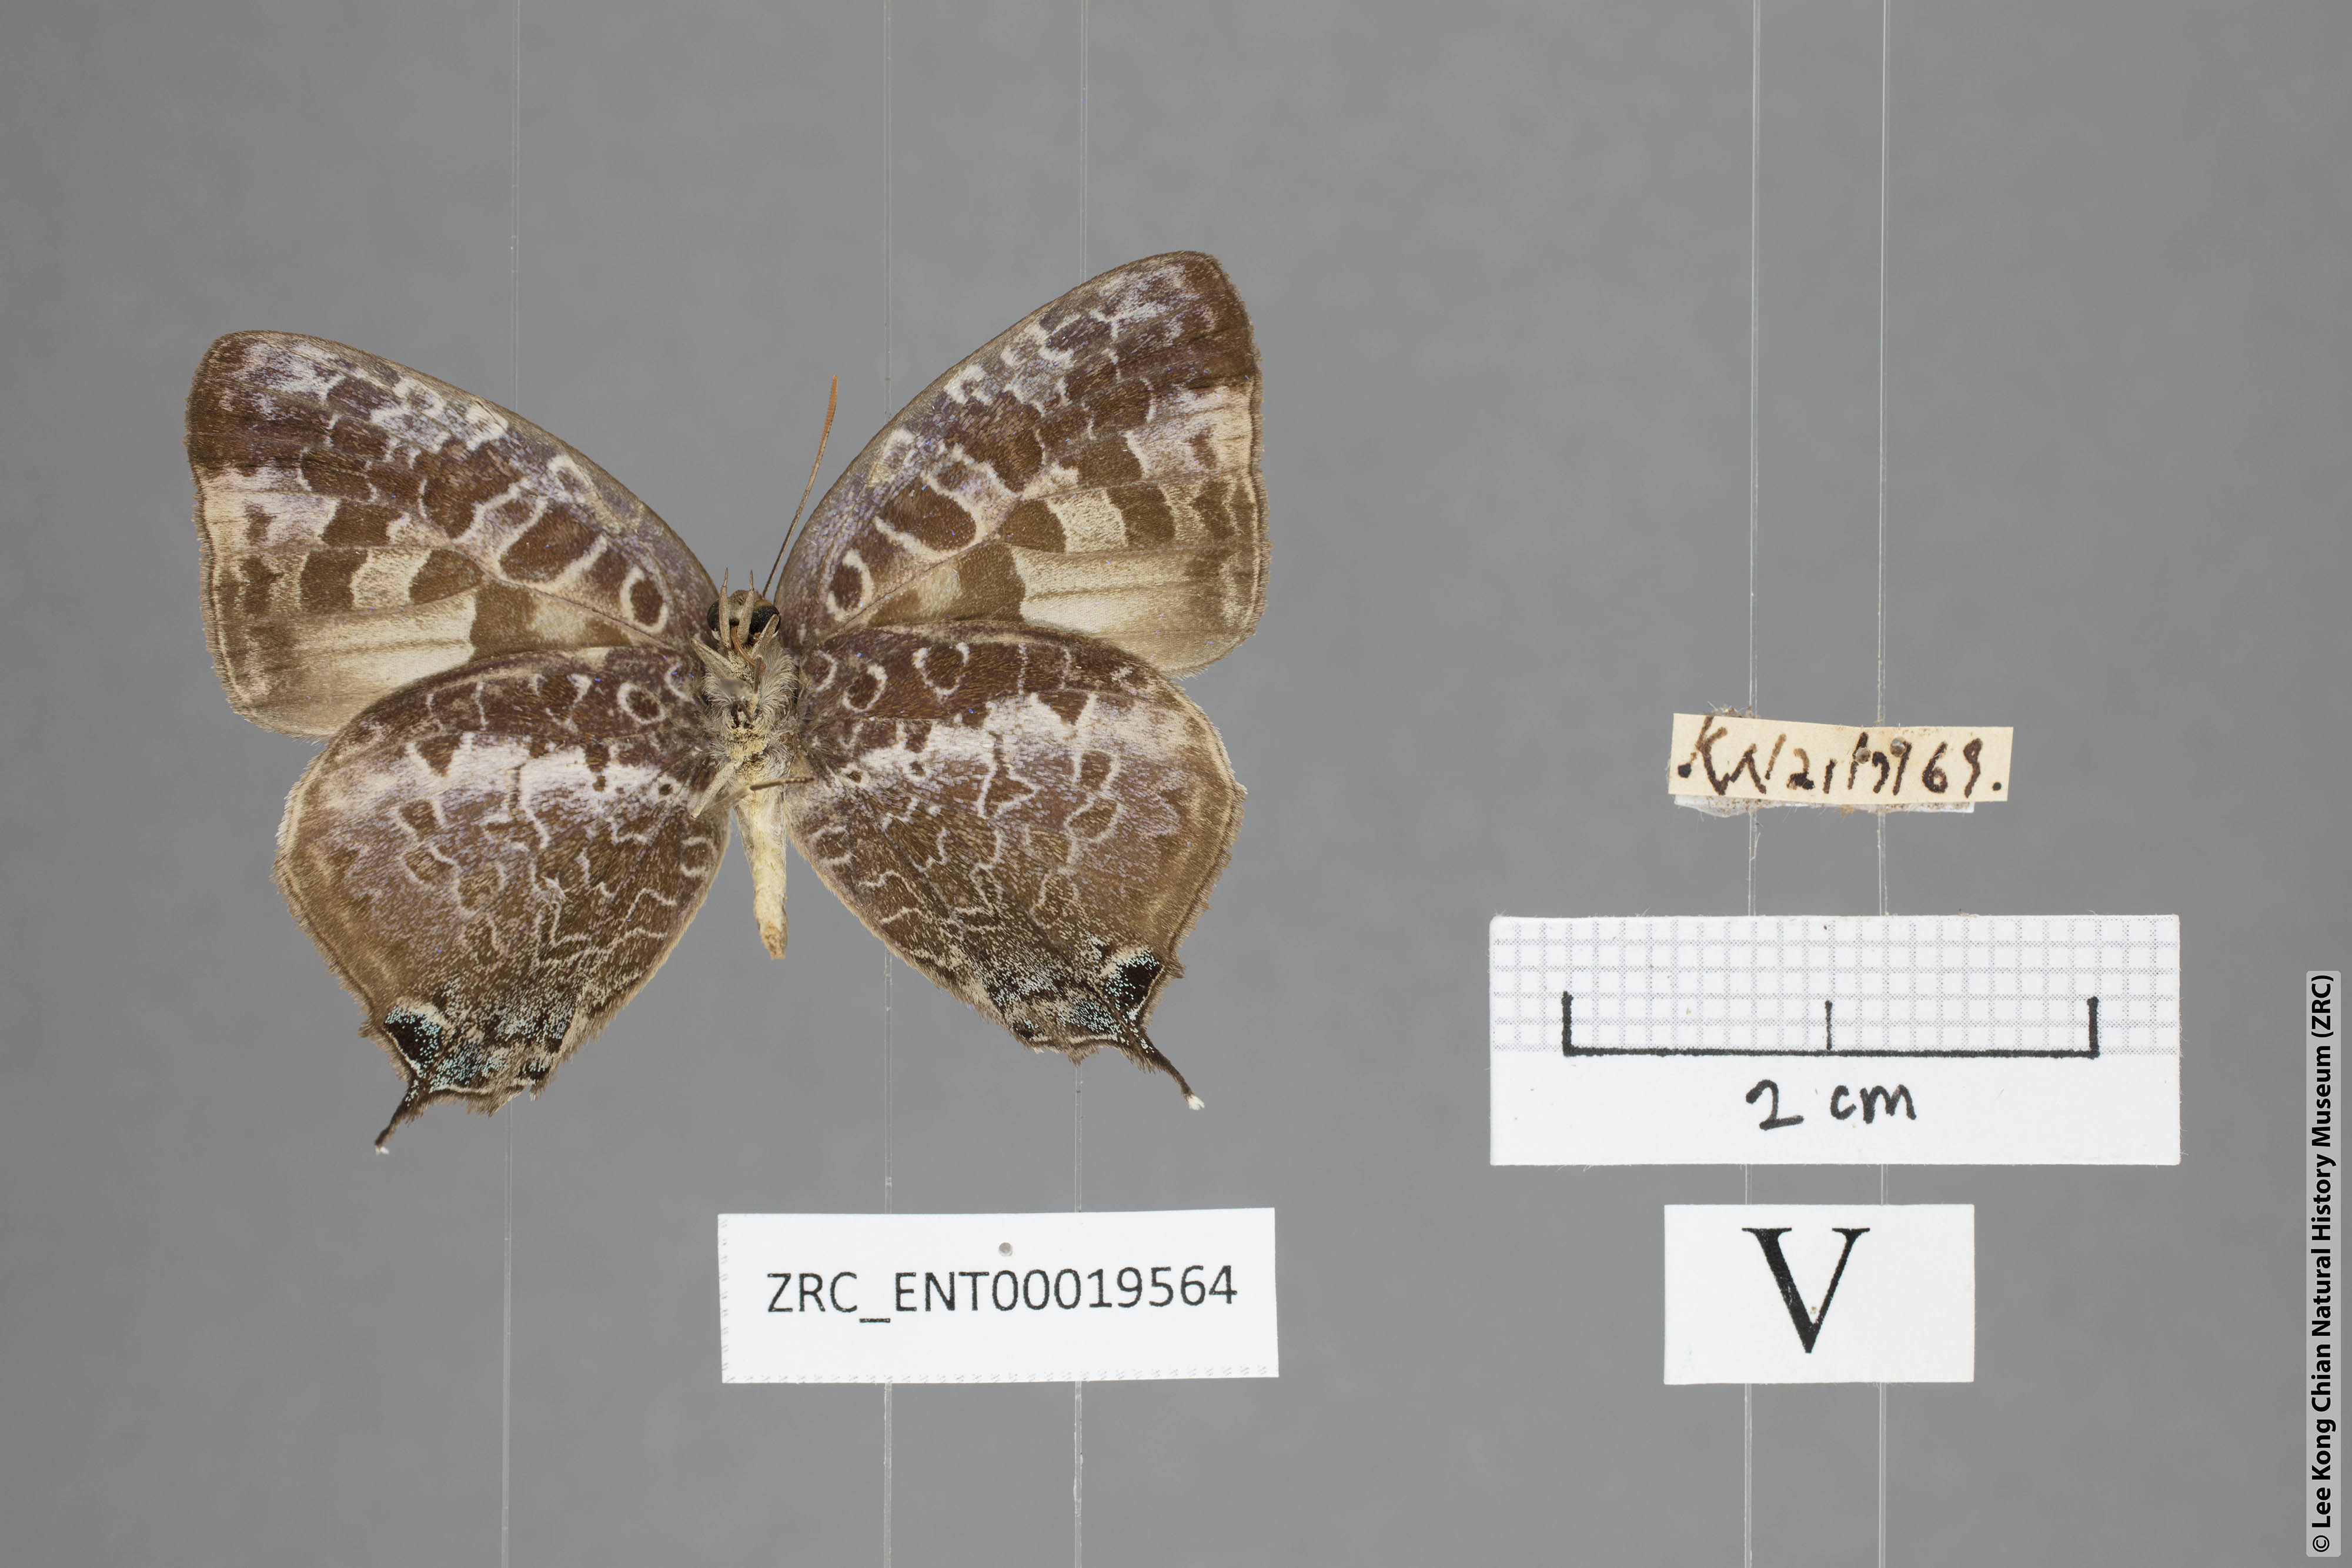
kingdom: Animalia
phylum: Arthropoda
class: Insecta
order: Lepidoptera
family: Lycaenidae
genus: Arhopala
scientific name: Arhopala ijauensis
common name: White-banded oakblue
